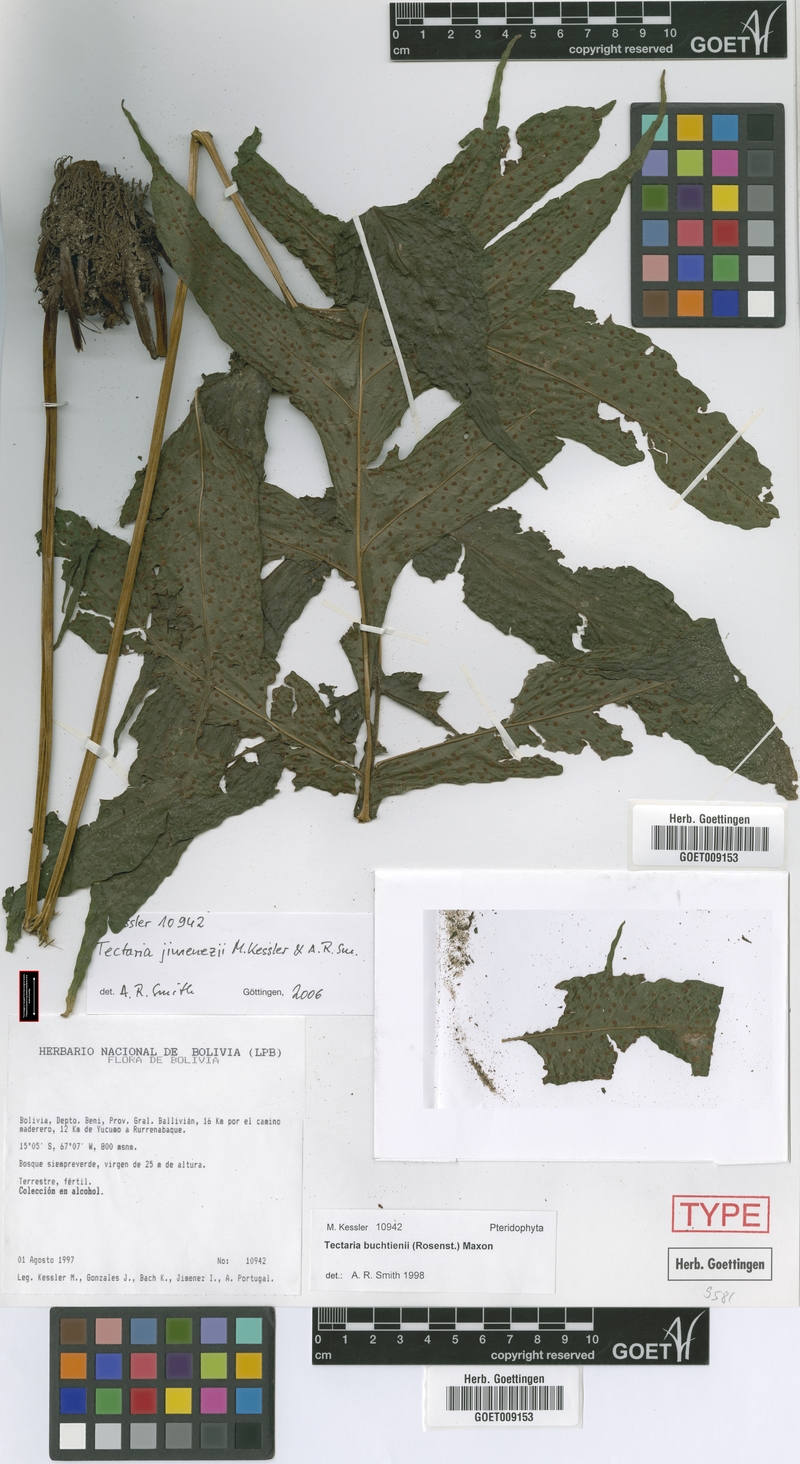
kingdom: Plantae
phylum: Tracheophyta
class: Polypodiopsida
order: Polypodiales
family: Tectariaceae
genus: Tectaria
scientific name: Tectaria jimenezii
